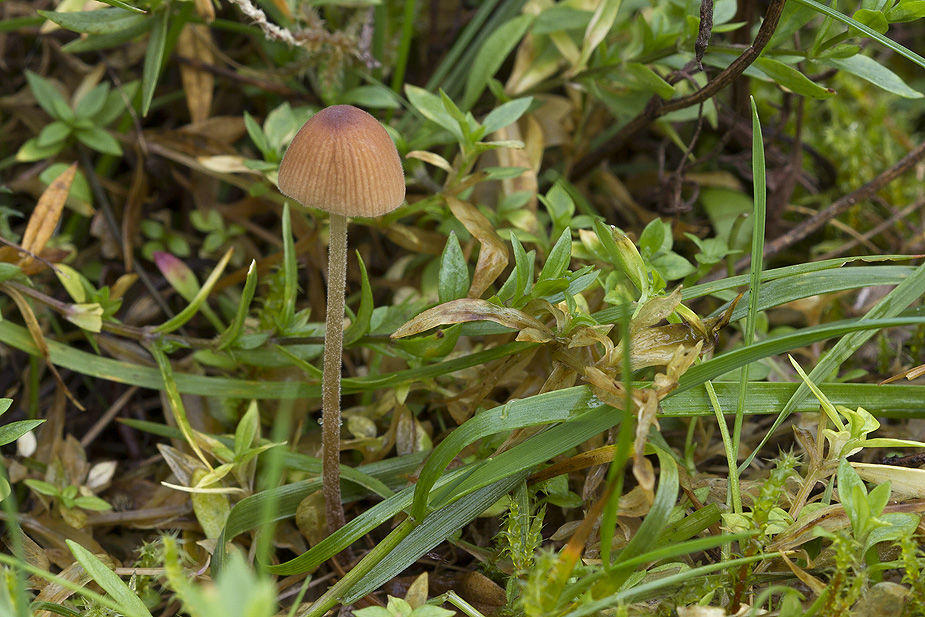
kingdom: Fungi
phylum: Basidiomycota
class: Agaricomycetes
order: Agaricales
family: Bolbitiaceae
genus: Conocybe
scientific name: Conocybe brunneidisca
